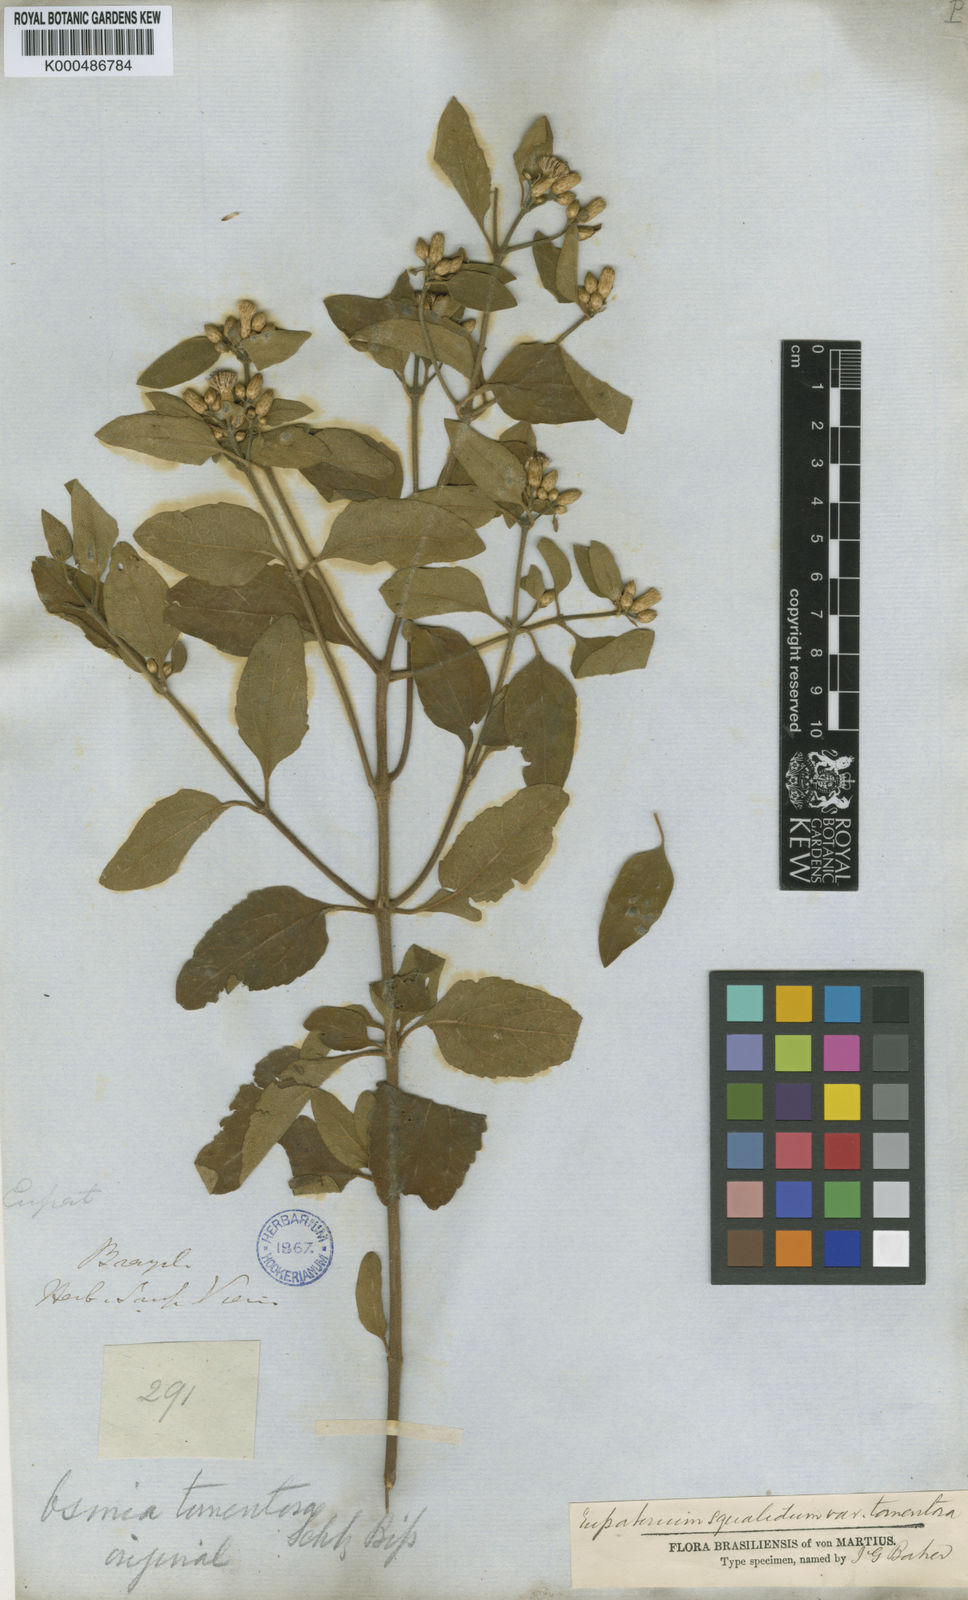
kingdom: Plantae
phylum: Tracheophyta
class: Magnoliopsida
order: Asterales
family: Asteraceae
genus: Chromolaena
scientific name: Chromolaena squalida
